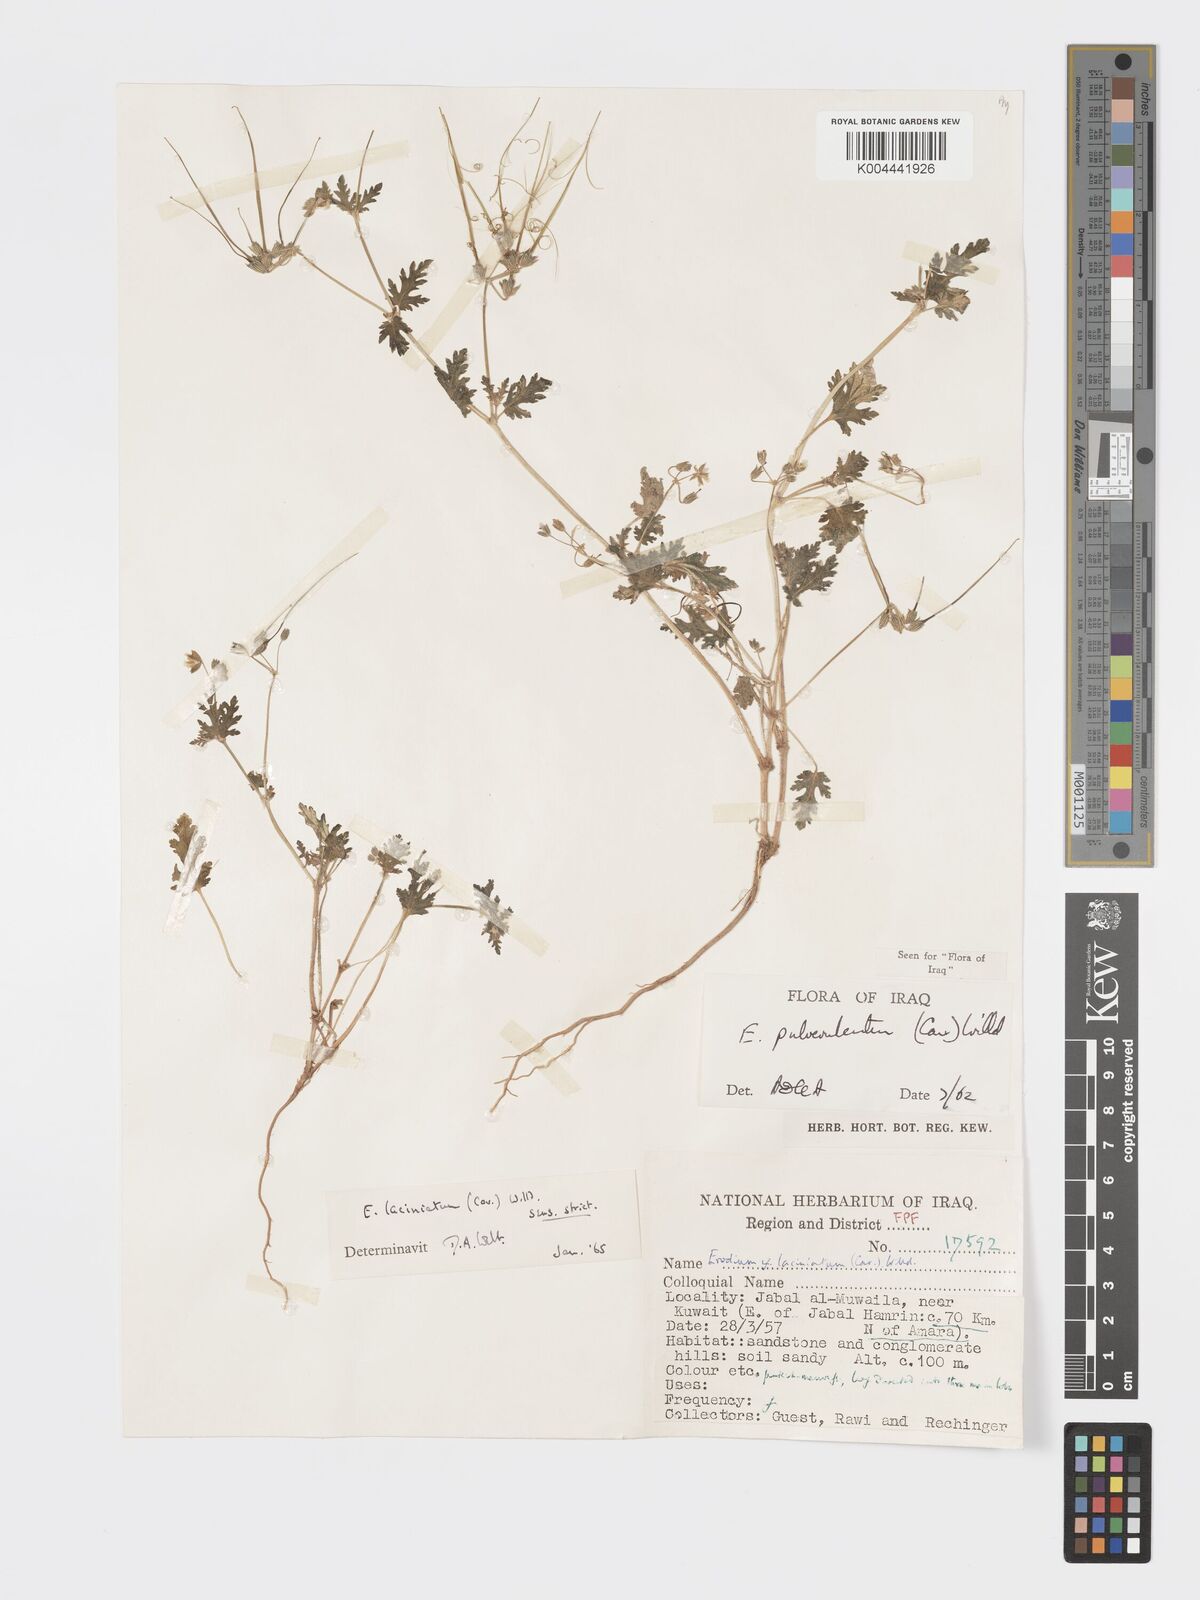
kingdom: Plantae
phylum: Tracheophyta
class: Magnoliopsida
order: Geraniales
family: Geraniaceae
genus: Erodium
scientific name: Erodium laciniatum
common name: Cutleaf stork's bill
